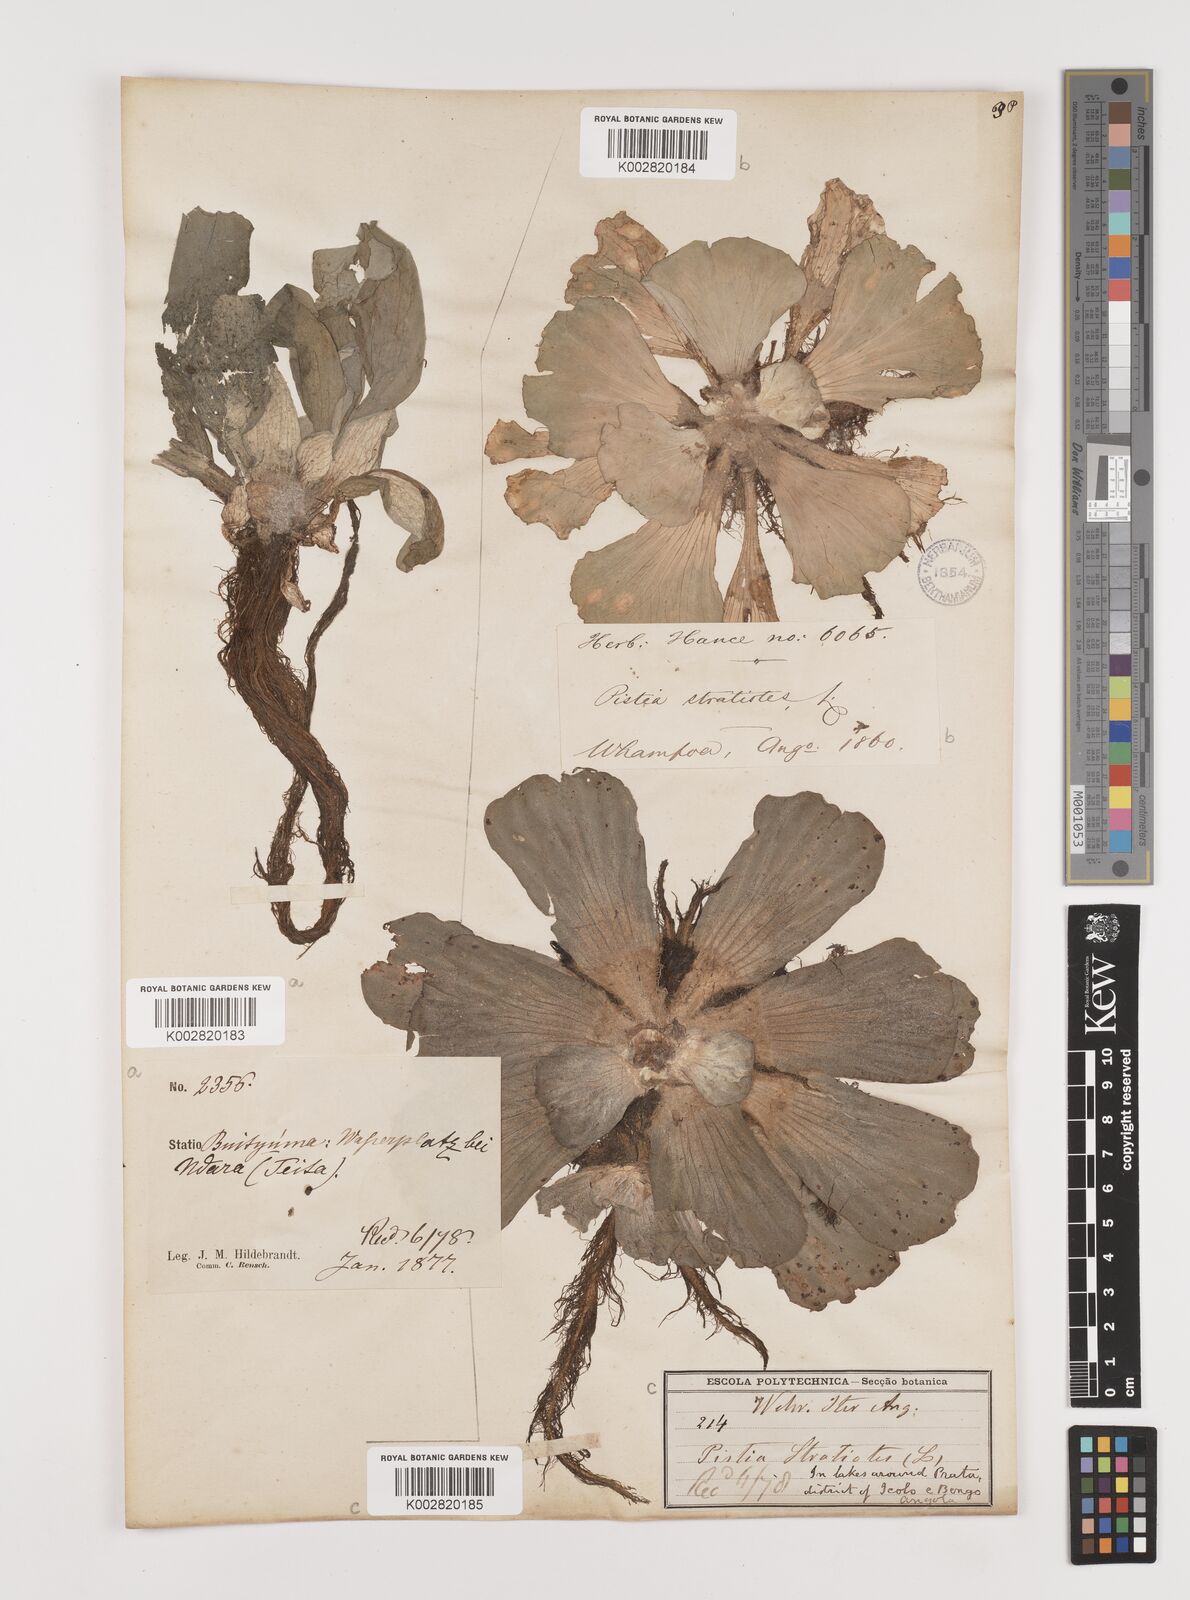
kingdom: Plantae
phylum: Tracheophyta
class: Liliopsida
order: Alismatales
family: Araceae
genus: Pistia
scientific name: Pistia stratiotes
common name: Water lettuce
